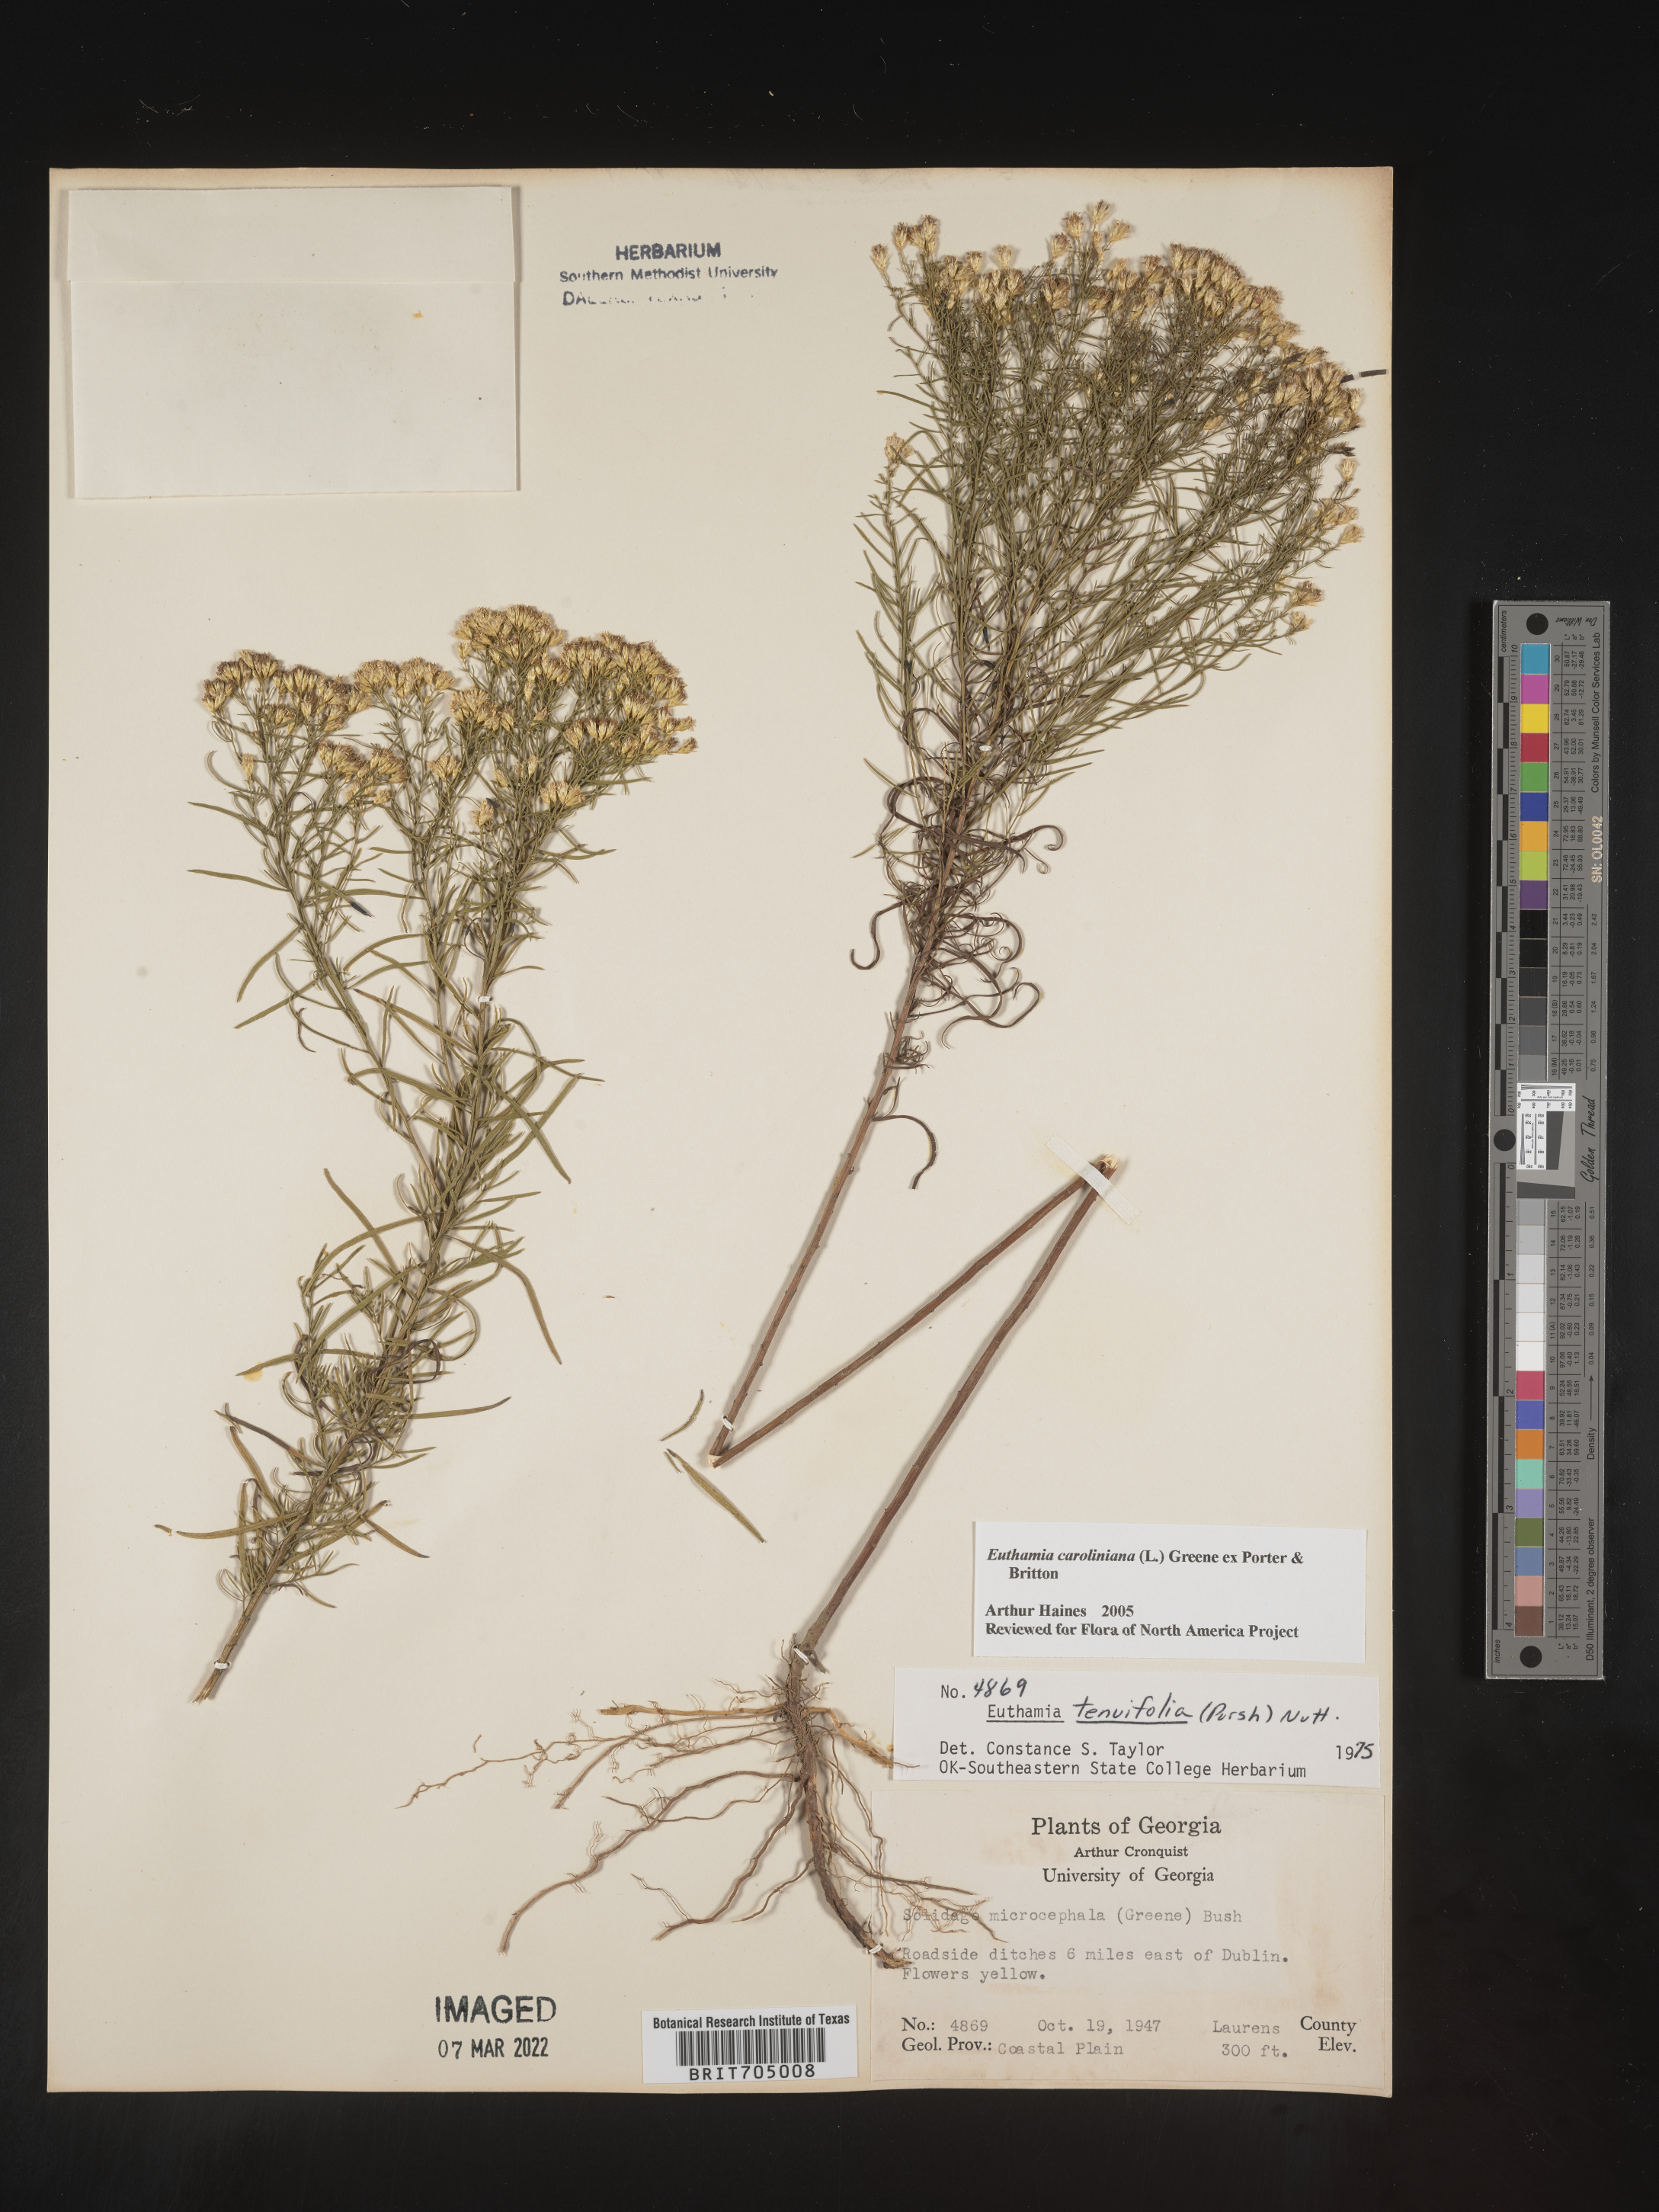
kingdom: Plantae
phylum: Tracheophyta
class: Magnoliopsida
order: Asterales
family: Asteraceae
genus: Euthamia
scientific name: Euthamia caroliniana
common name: Coastal plain goldentop
